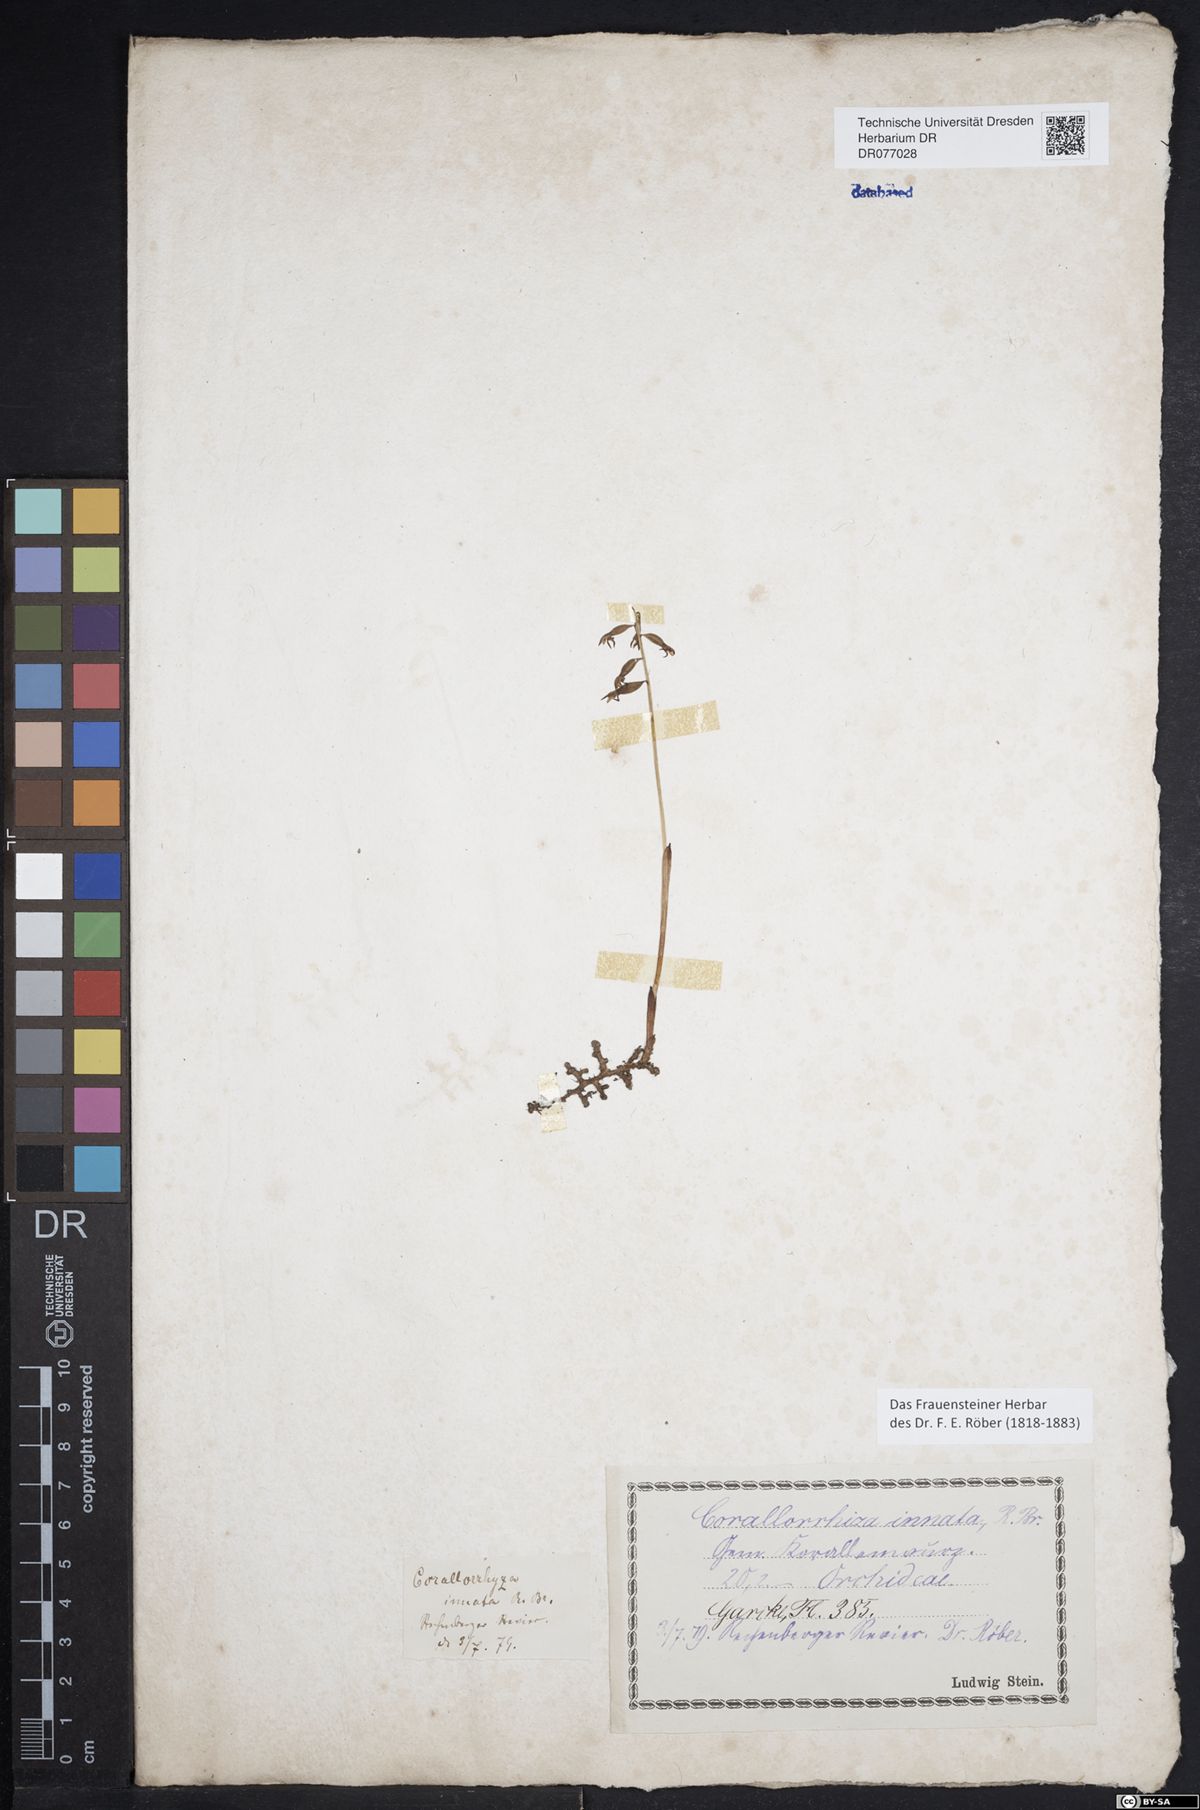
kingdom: Plantae
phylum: Tracheophyta
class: Liliopsida
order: Asparagales
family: Orchidaceae
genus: Corallorhiza
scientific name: Corallorhiza trifida
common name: Yellow coralroot
